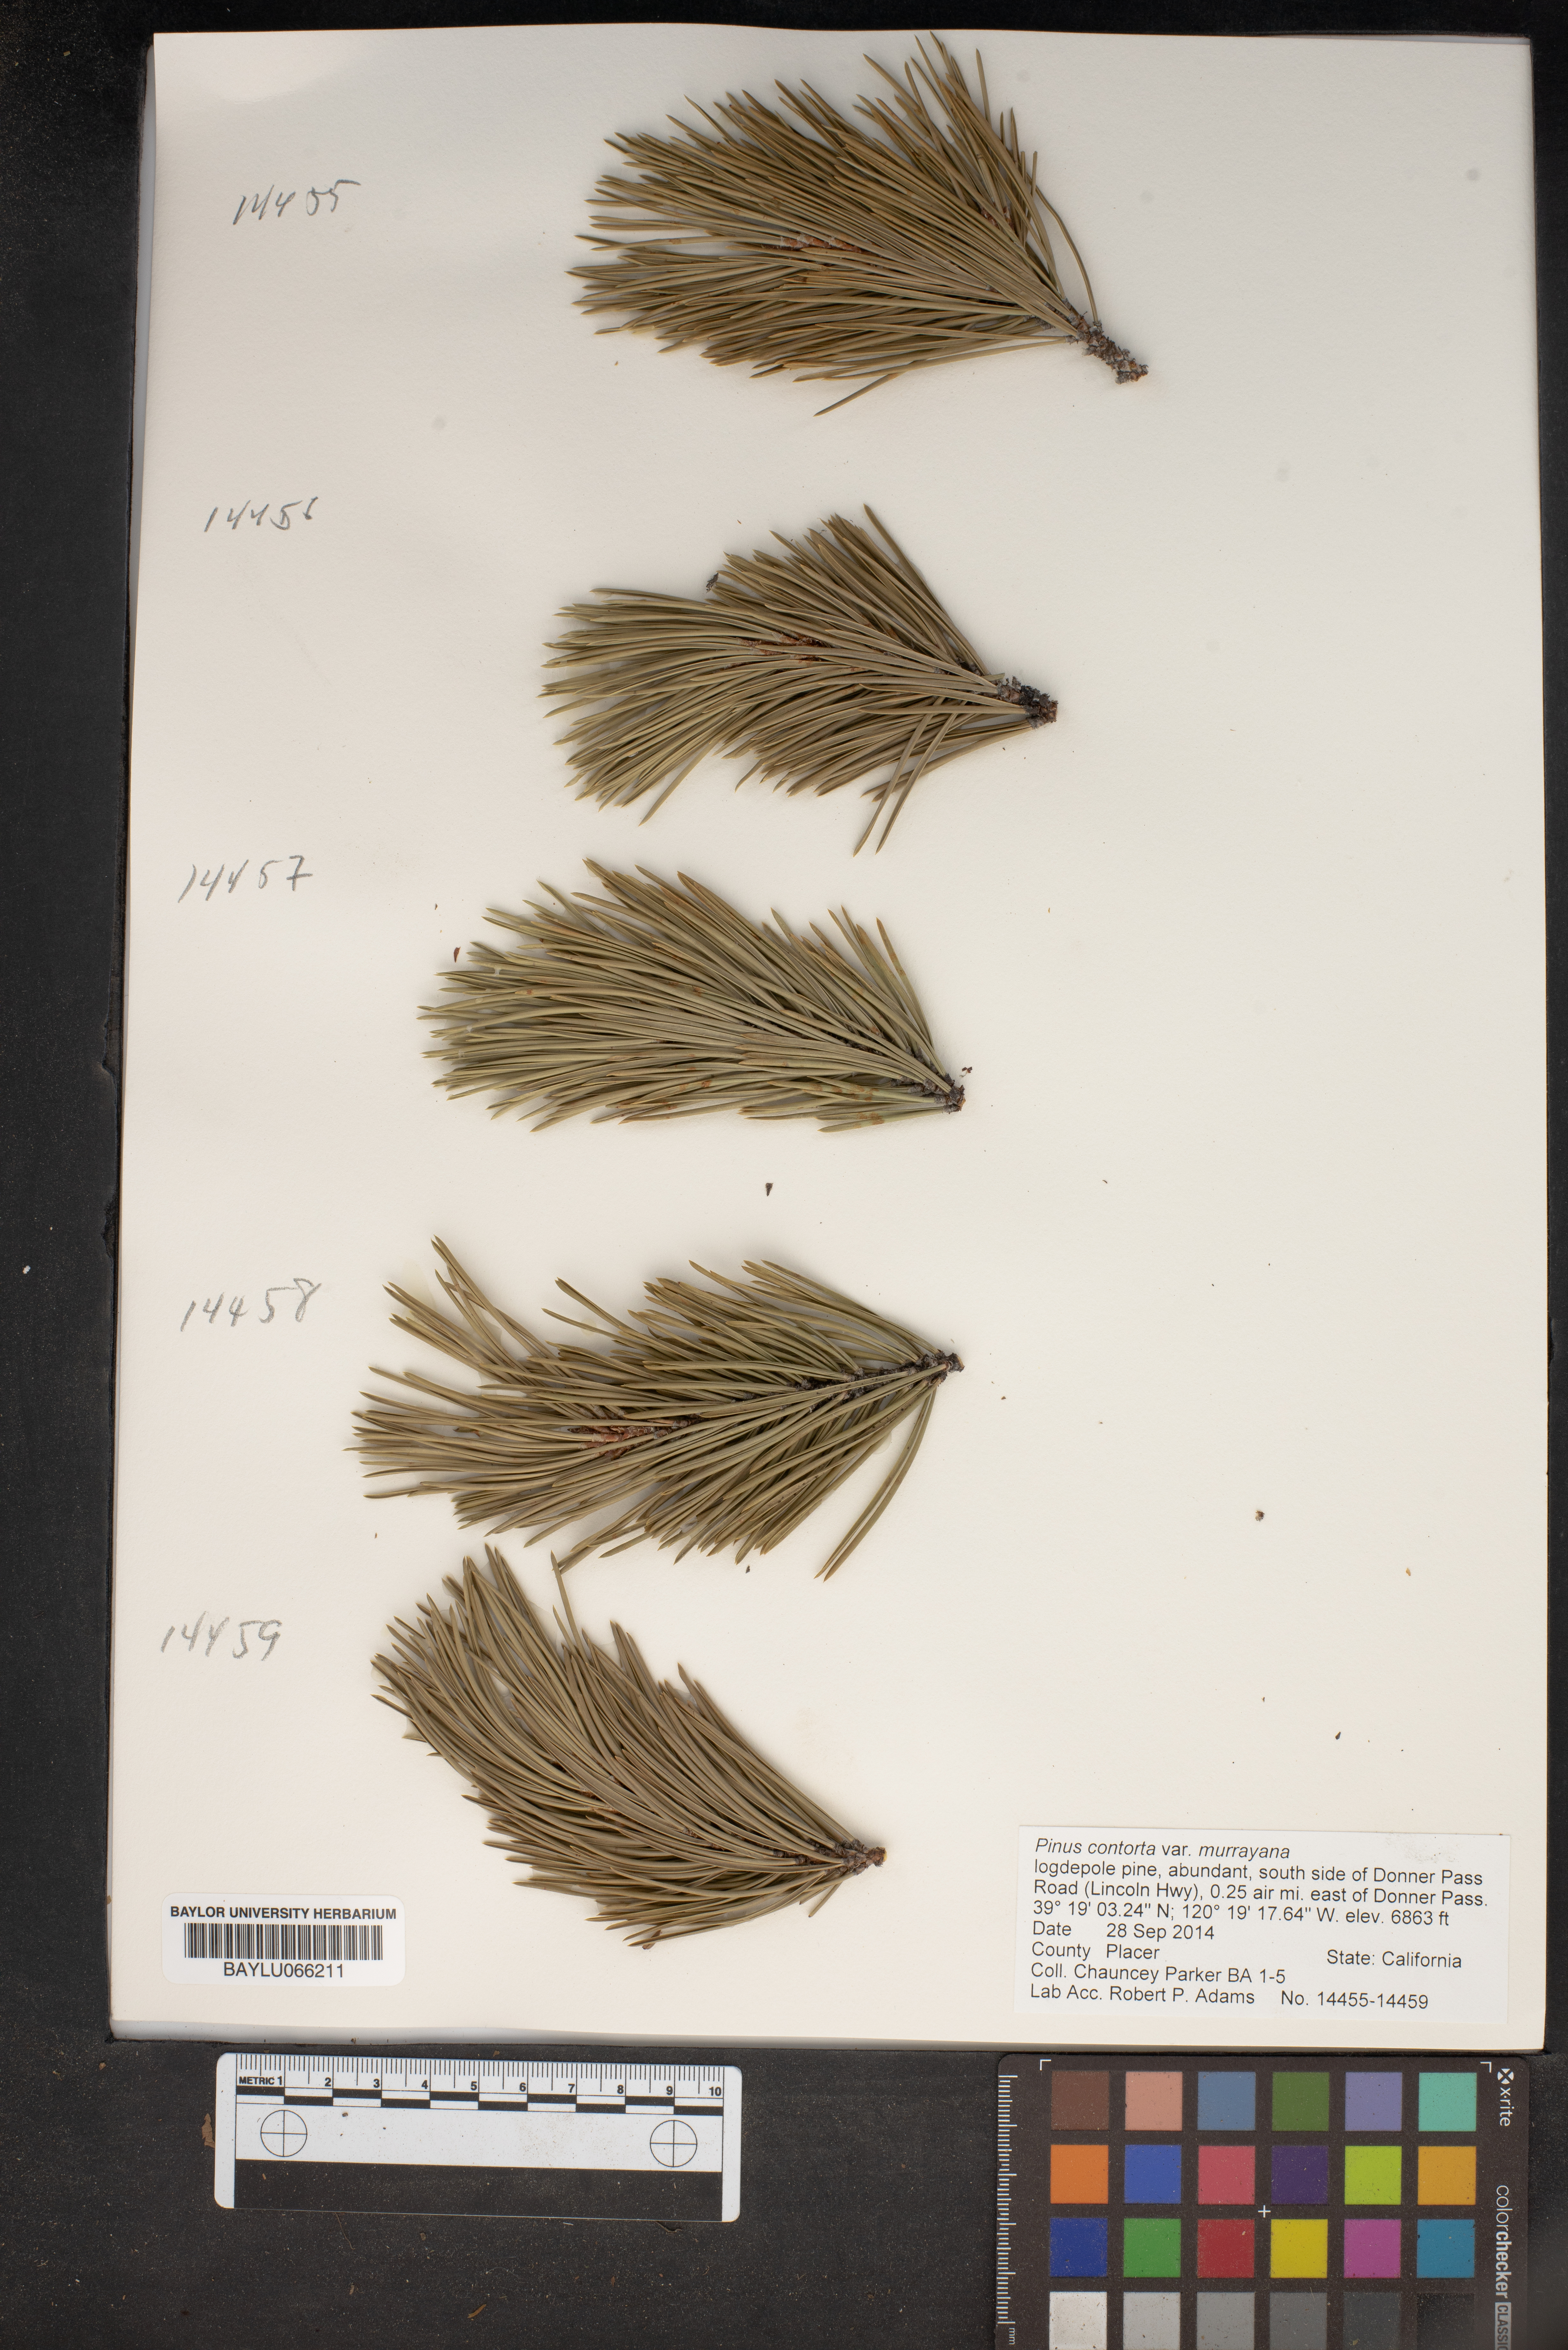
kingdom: Plantae
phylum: Tracheophyta
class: Pinopsida
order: Pinales
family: Pinaceae
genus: Pinus
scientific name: Pinus contorta
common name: Lodgepole pine
